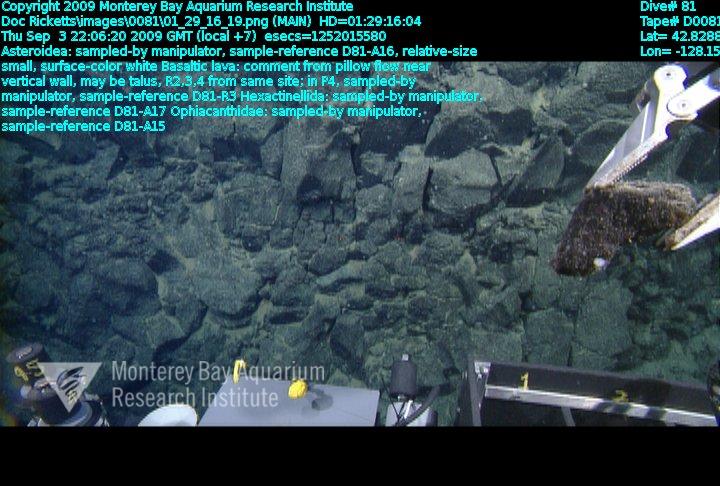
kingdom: Animalia
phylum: Porifera
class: Hexactinellida
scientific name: Hexactinellida
